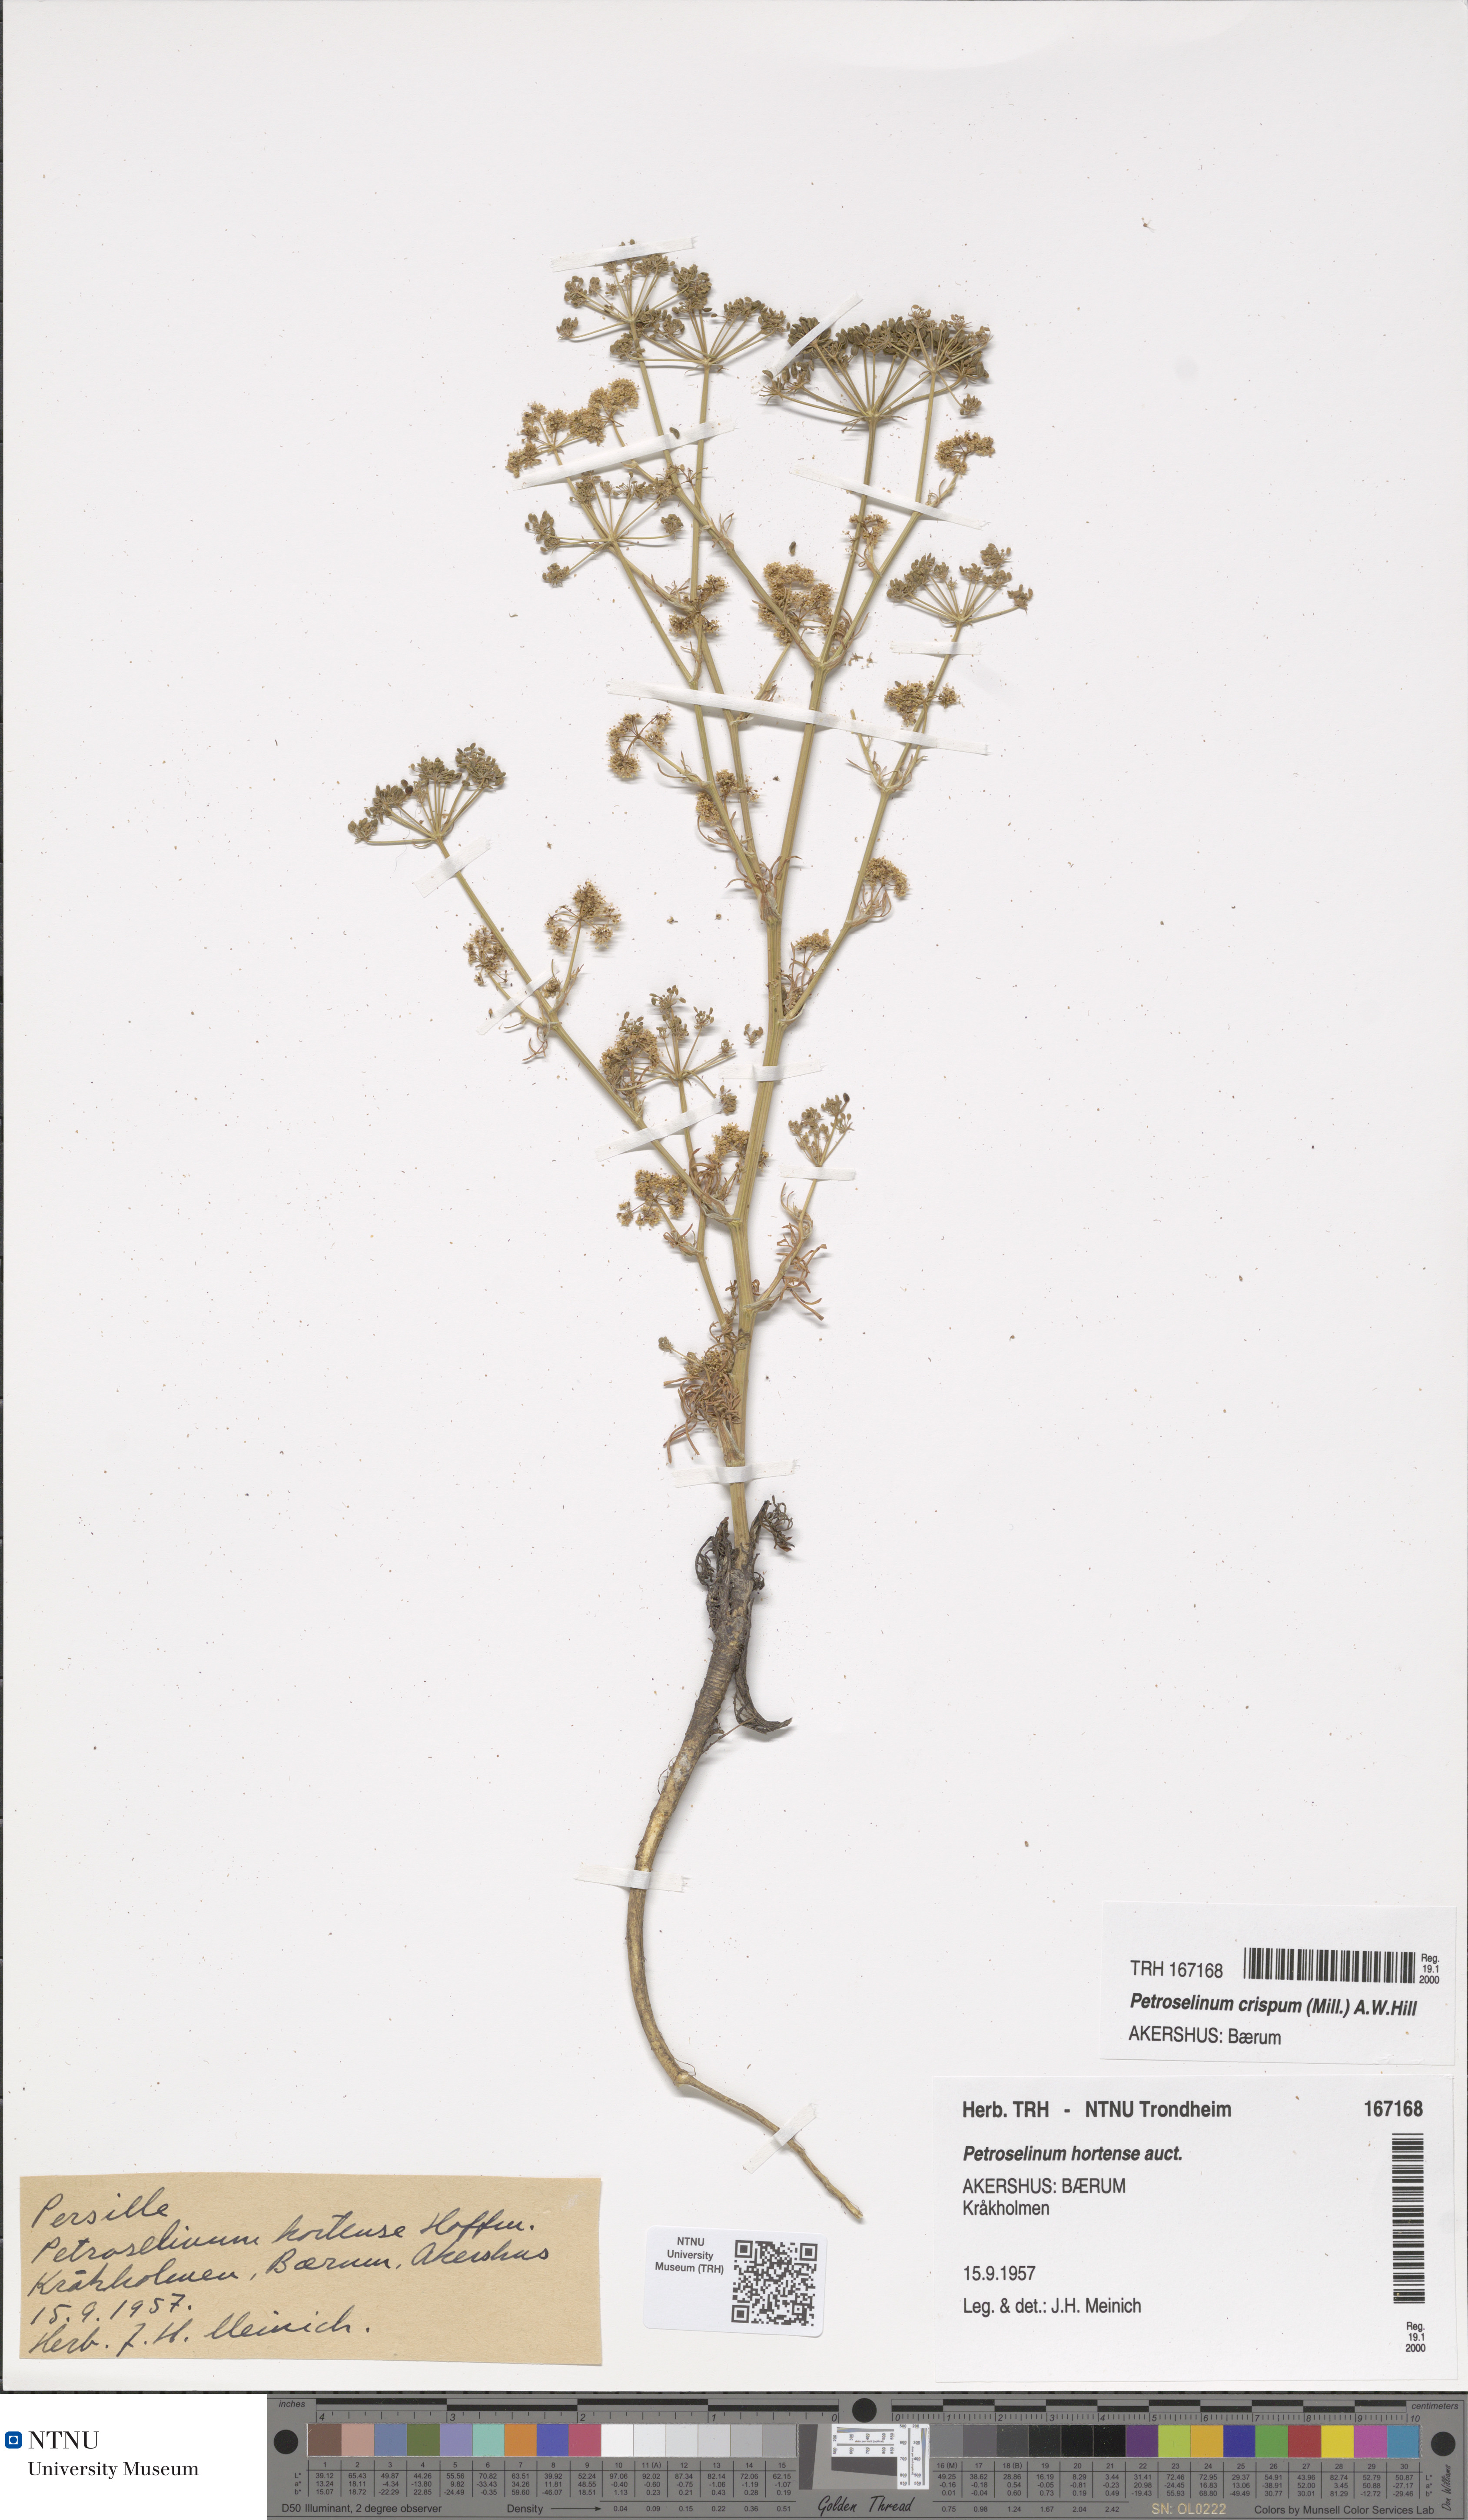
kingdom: Plantae
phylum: Tracheophyta
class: Magnoliopsida
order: Apiales
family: Apiaceae
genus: Petroselinum
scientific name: Petroselinum crispum
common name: Parsley
